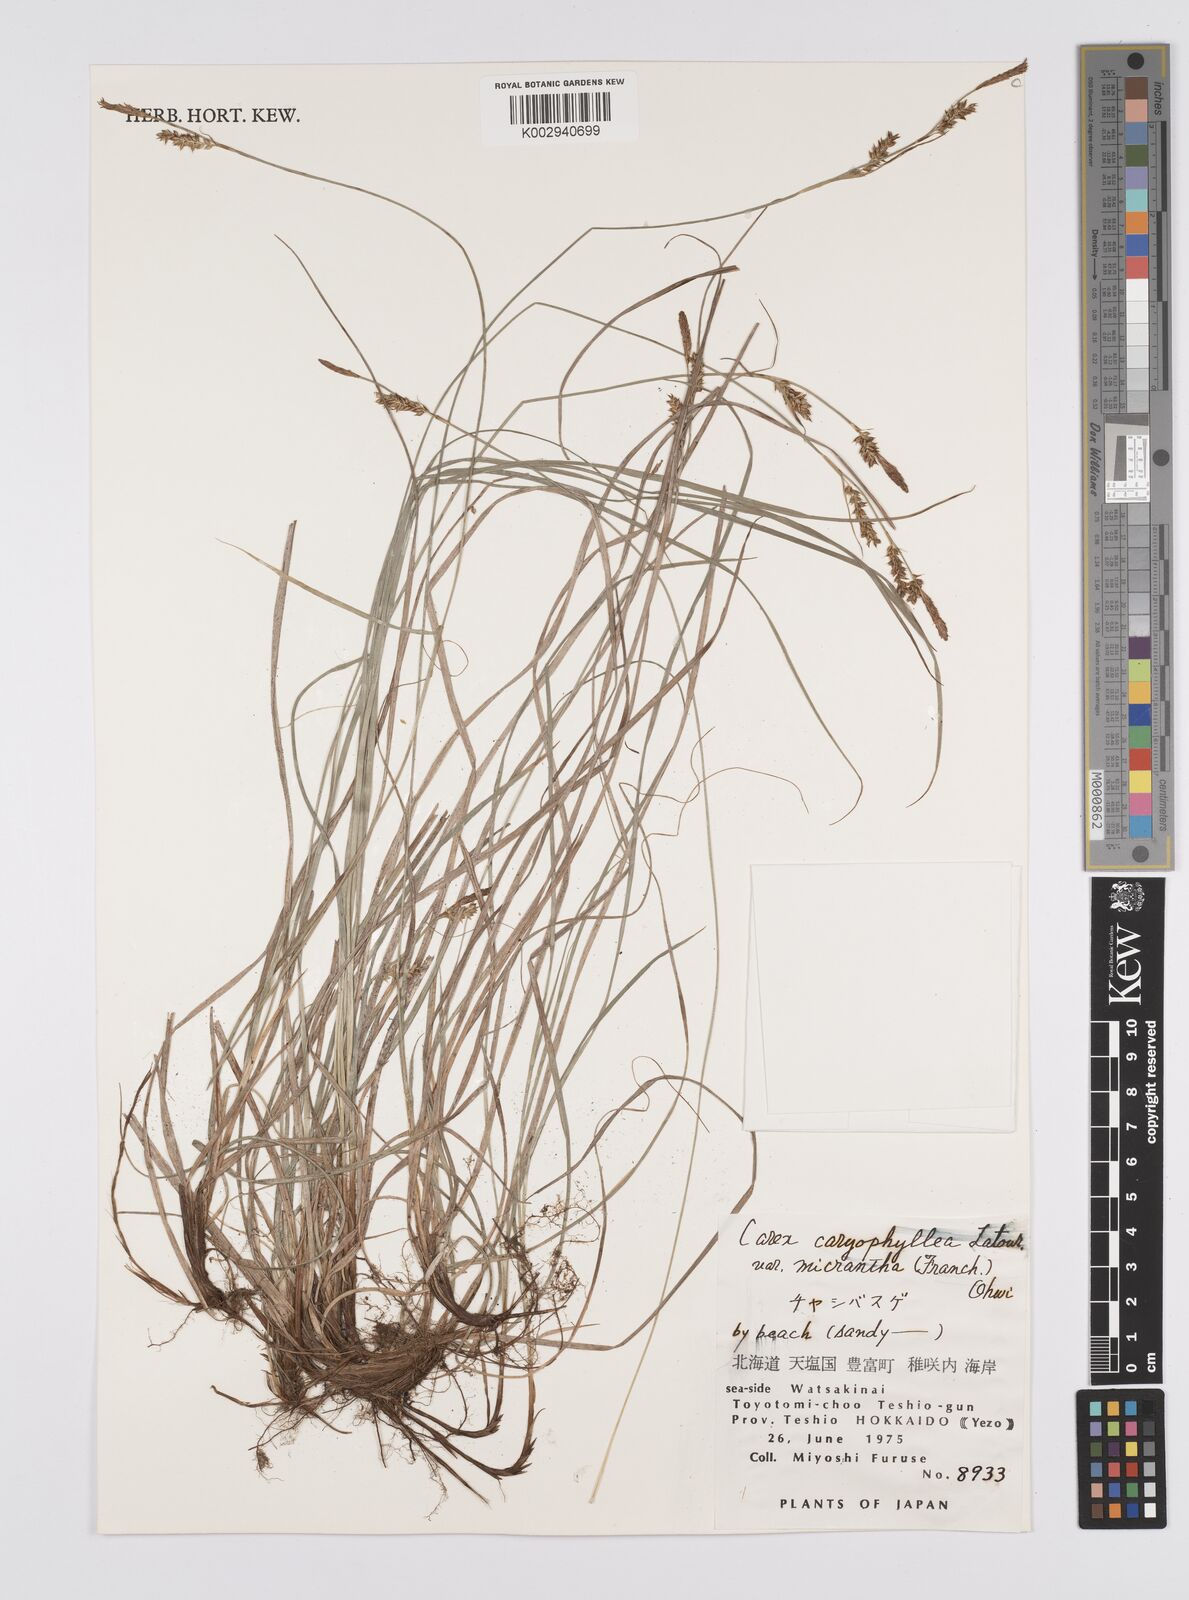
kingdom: Plantae
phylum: Tracheophyta
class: Liliopsida
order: Poales
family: Cyperaceae
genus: Carex
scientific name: Carex caryophyllea
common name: Spring sedge
